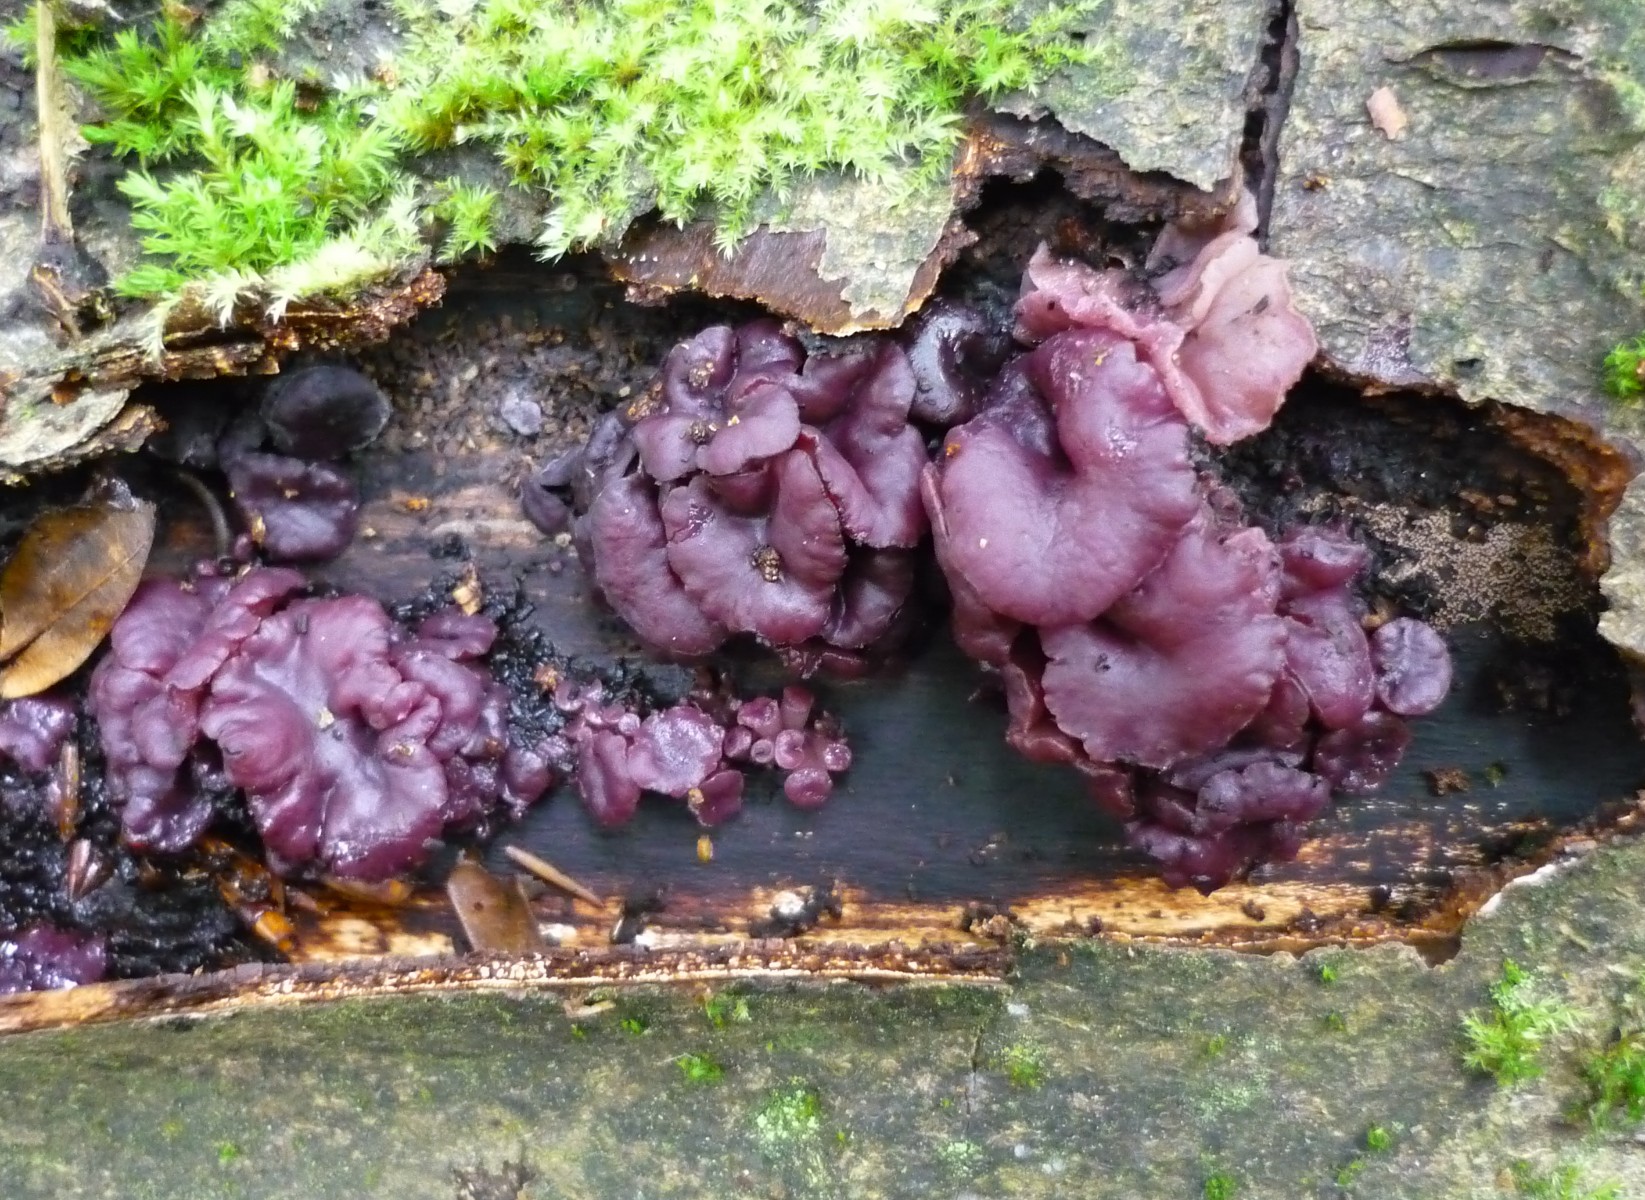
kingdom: Fungi
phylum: Ascomycota
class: Leotiomycetes
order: Helotiales
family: Gelatinodiscaceae
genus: Ascocoryne
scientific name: Ascocoryne cylichnium
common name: stor sejskive
